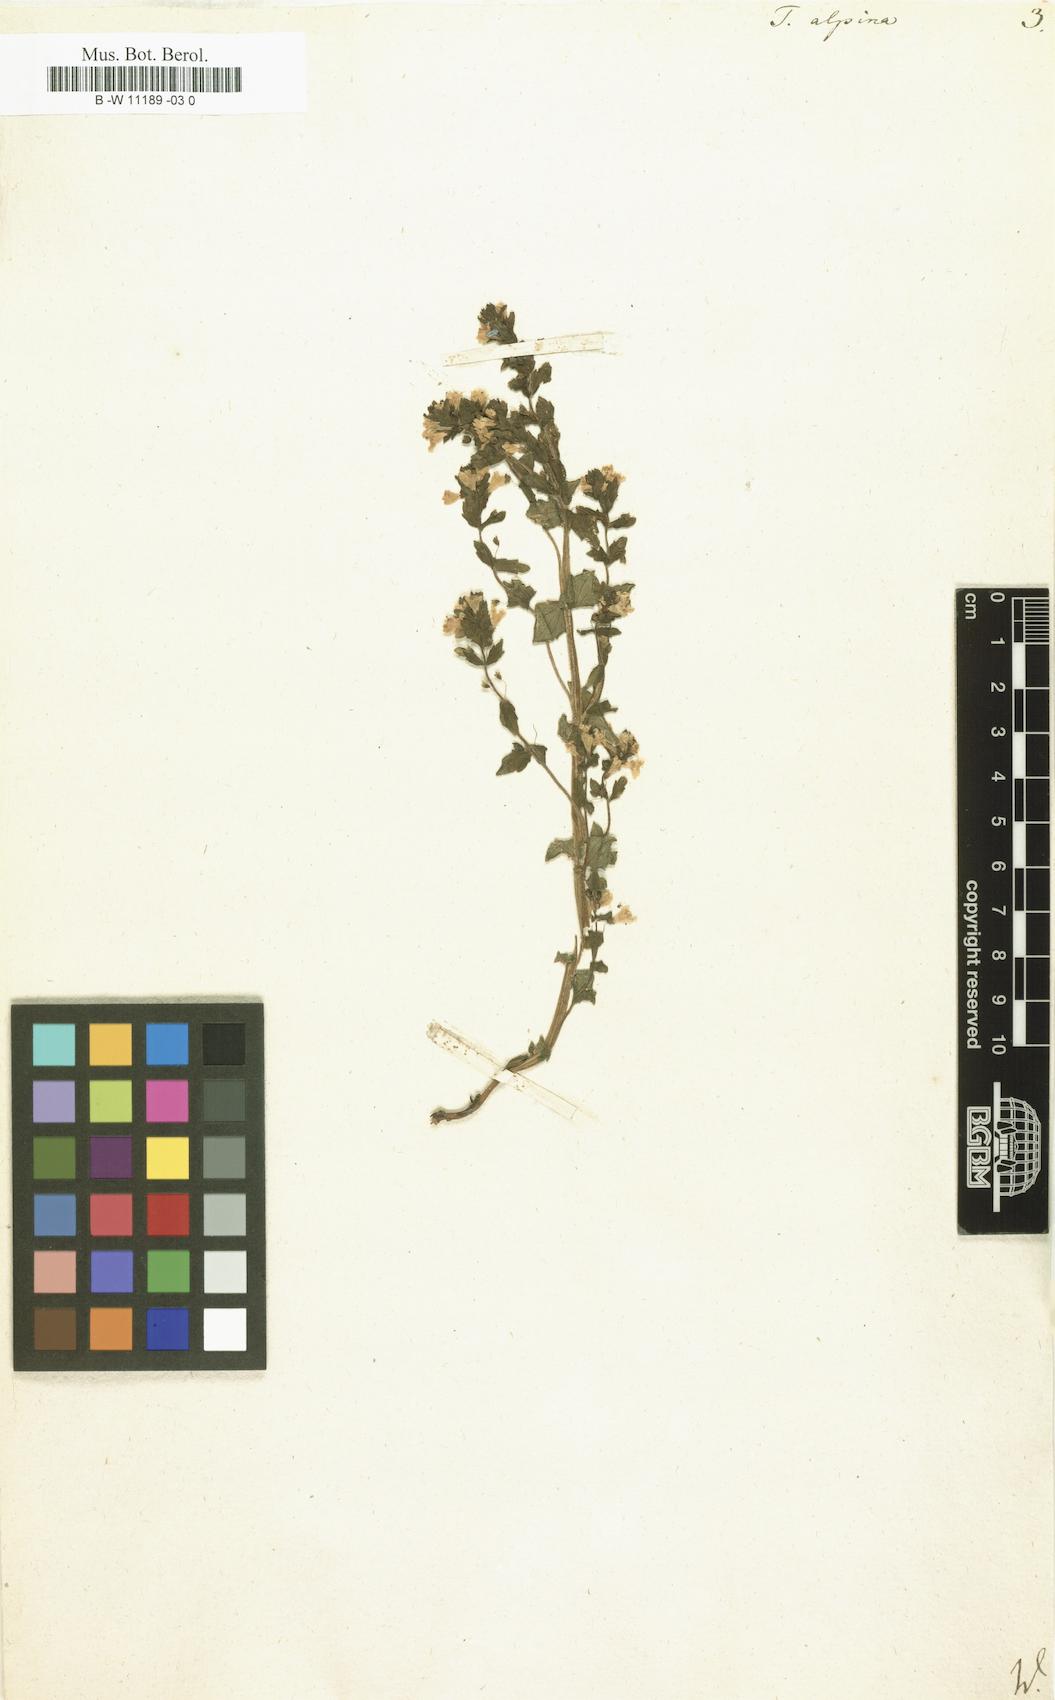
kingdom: Plantae
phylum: Tracheophyta
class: Magnoliopsida
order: Lamiales
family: Orobanchaceae
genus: Tozzia
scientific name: Tozzia alpina
